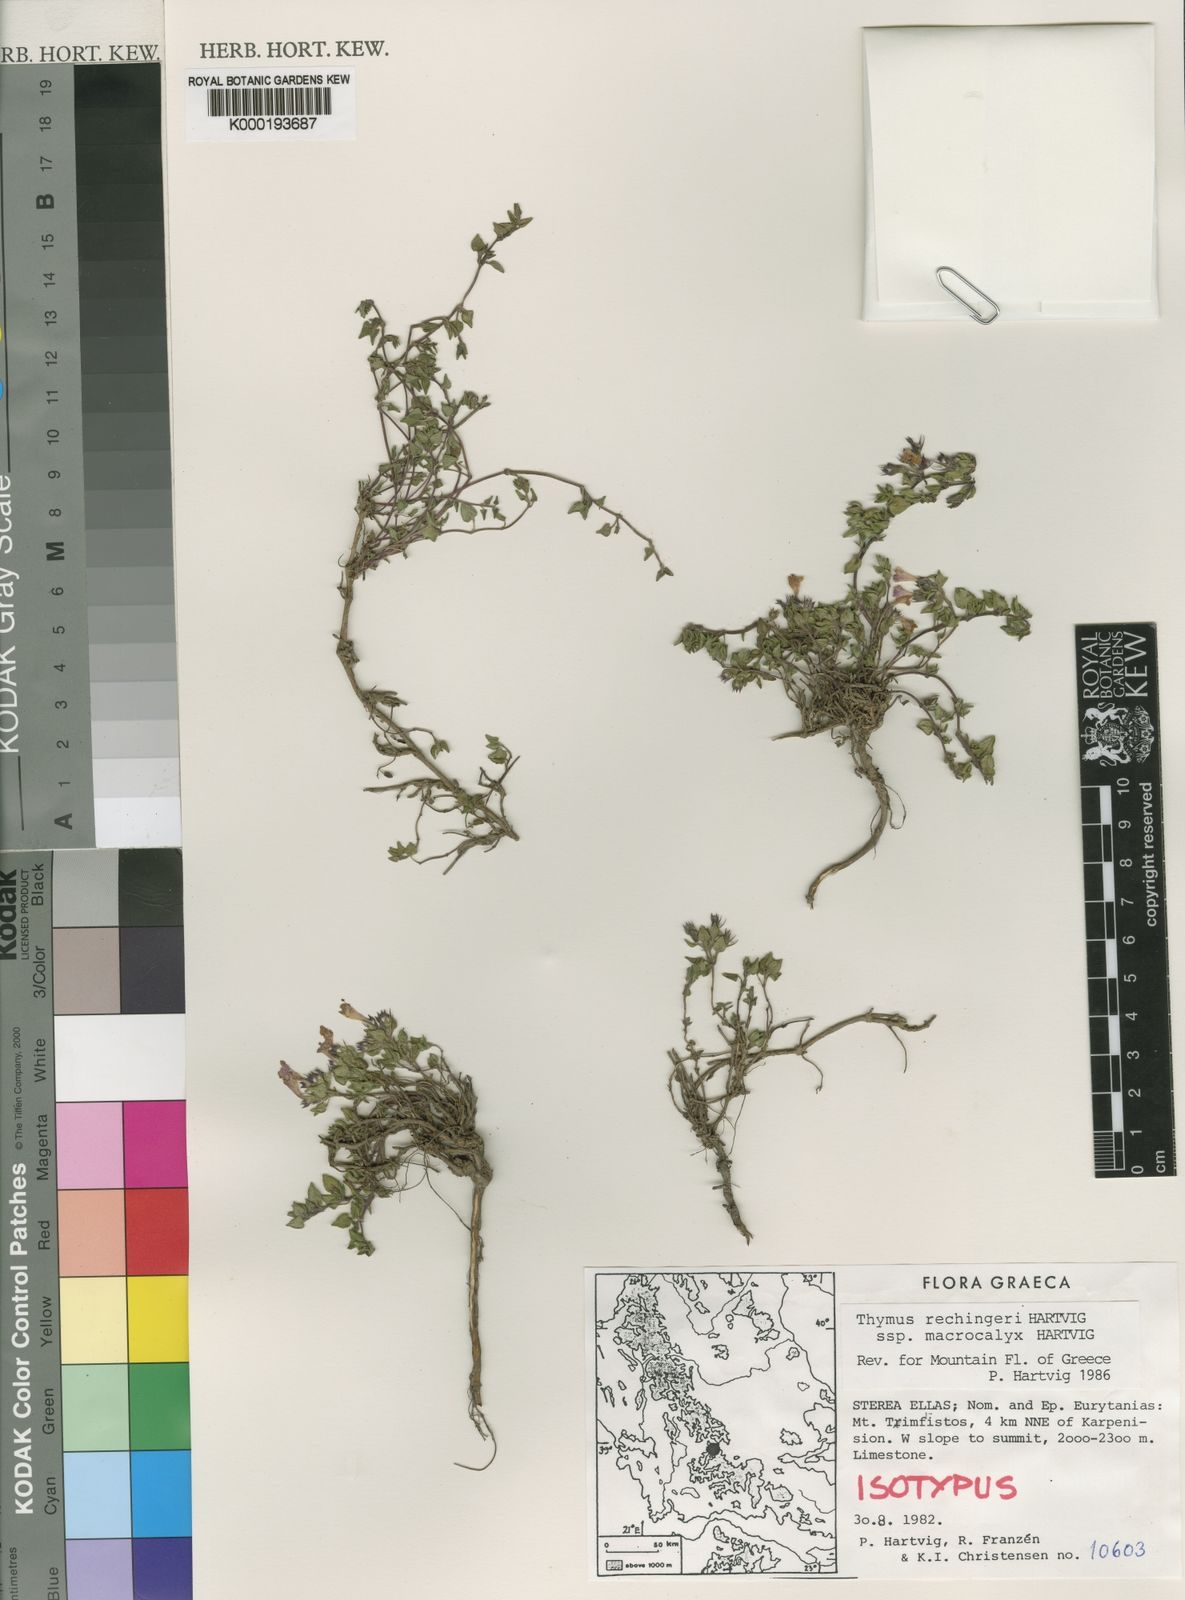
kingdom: Plantae
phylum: Tracheophyta
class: Magnoliopsida
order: Lamiales
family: Lamiaceae
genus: Thymus
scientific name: Thymus rechingeri
